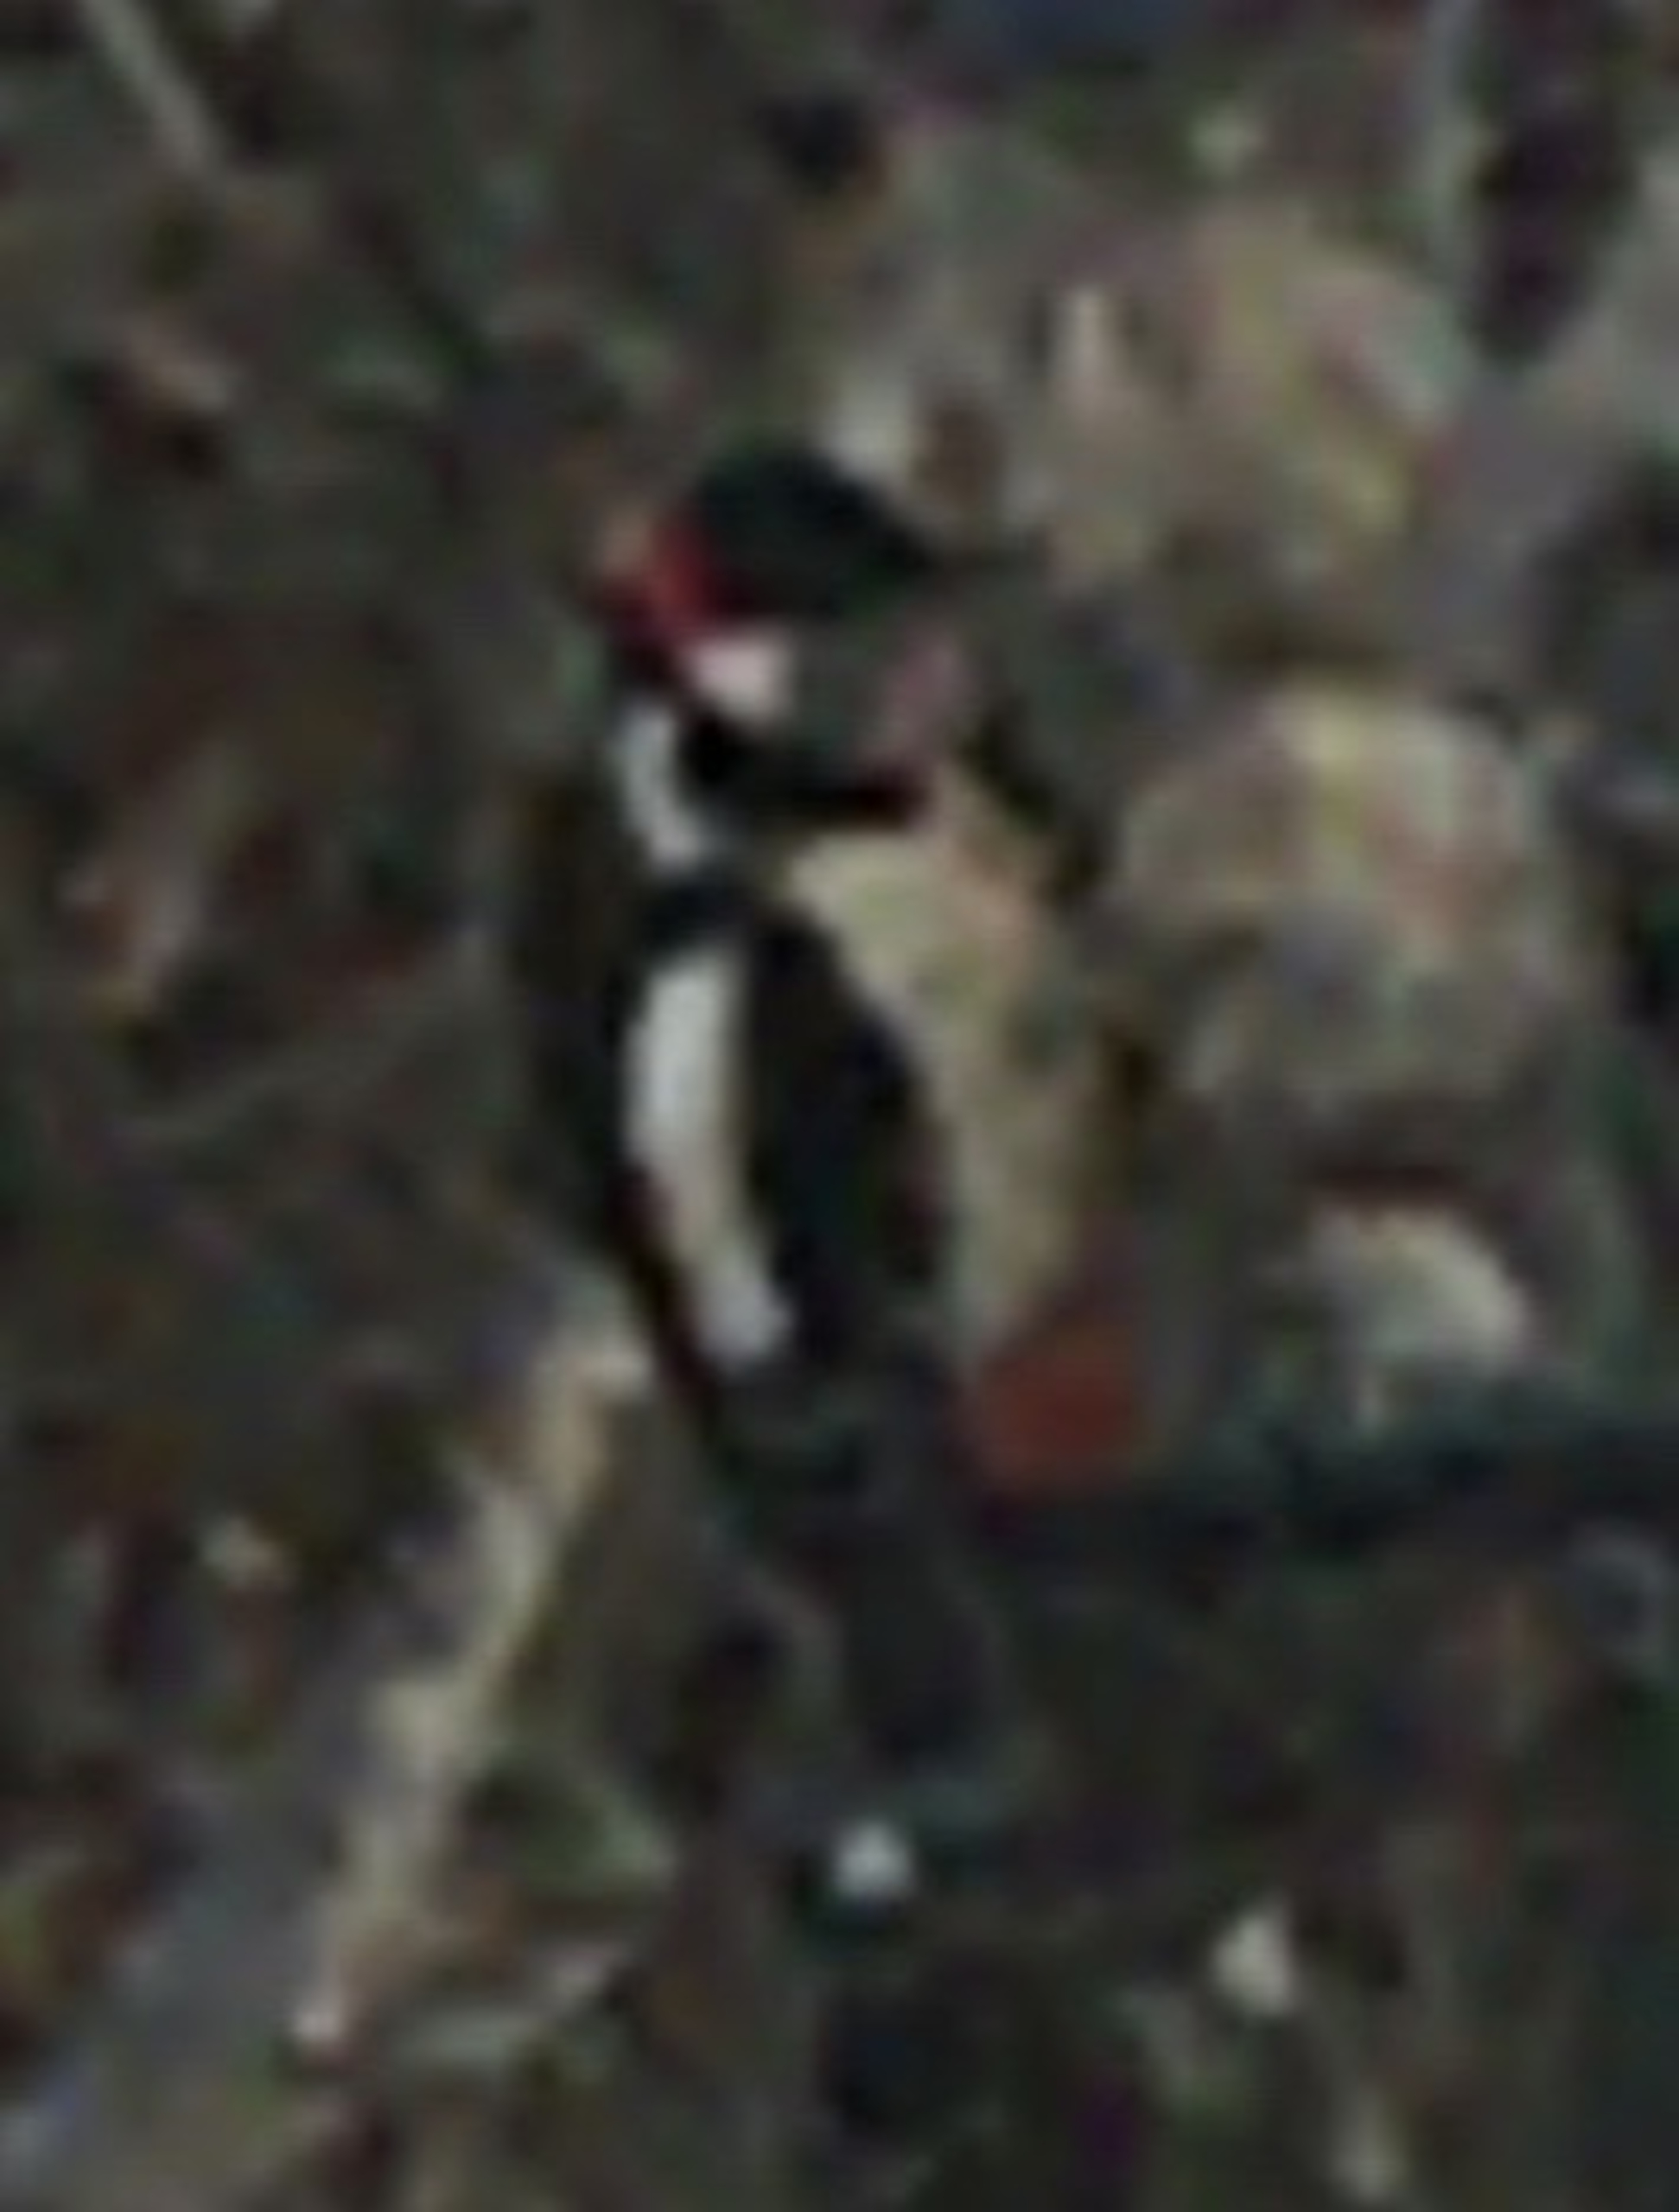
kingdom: Animalia
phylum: Chordata
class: Aves
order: Piciformes
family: Picidae
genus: Dendrocopos
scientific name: Dendrocopos major
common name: Stor flagspætte
